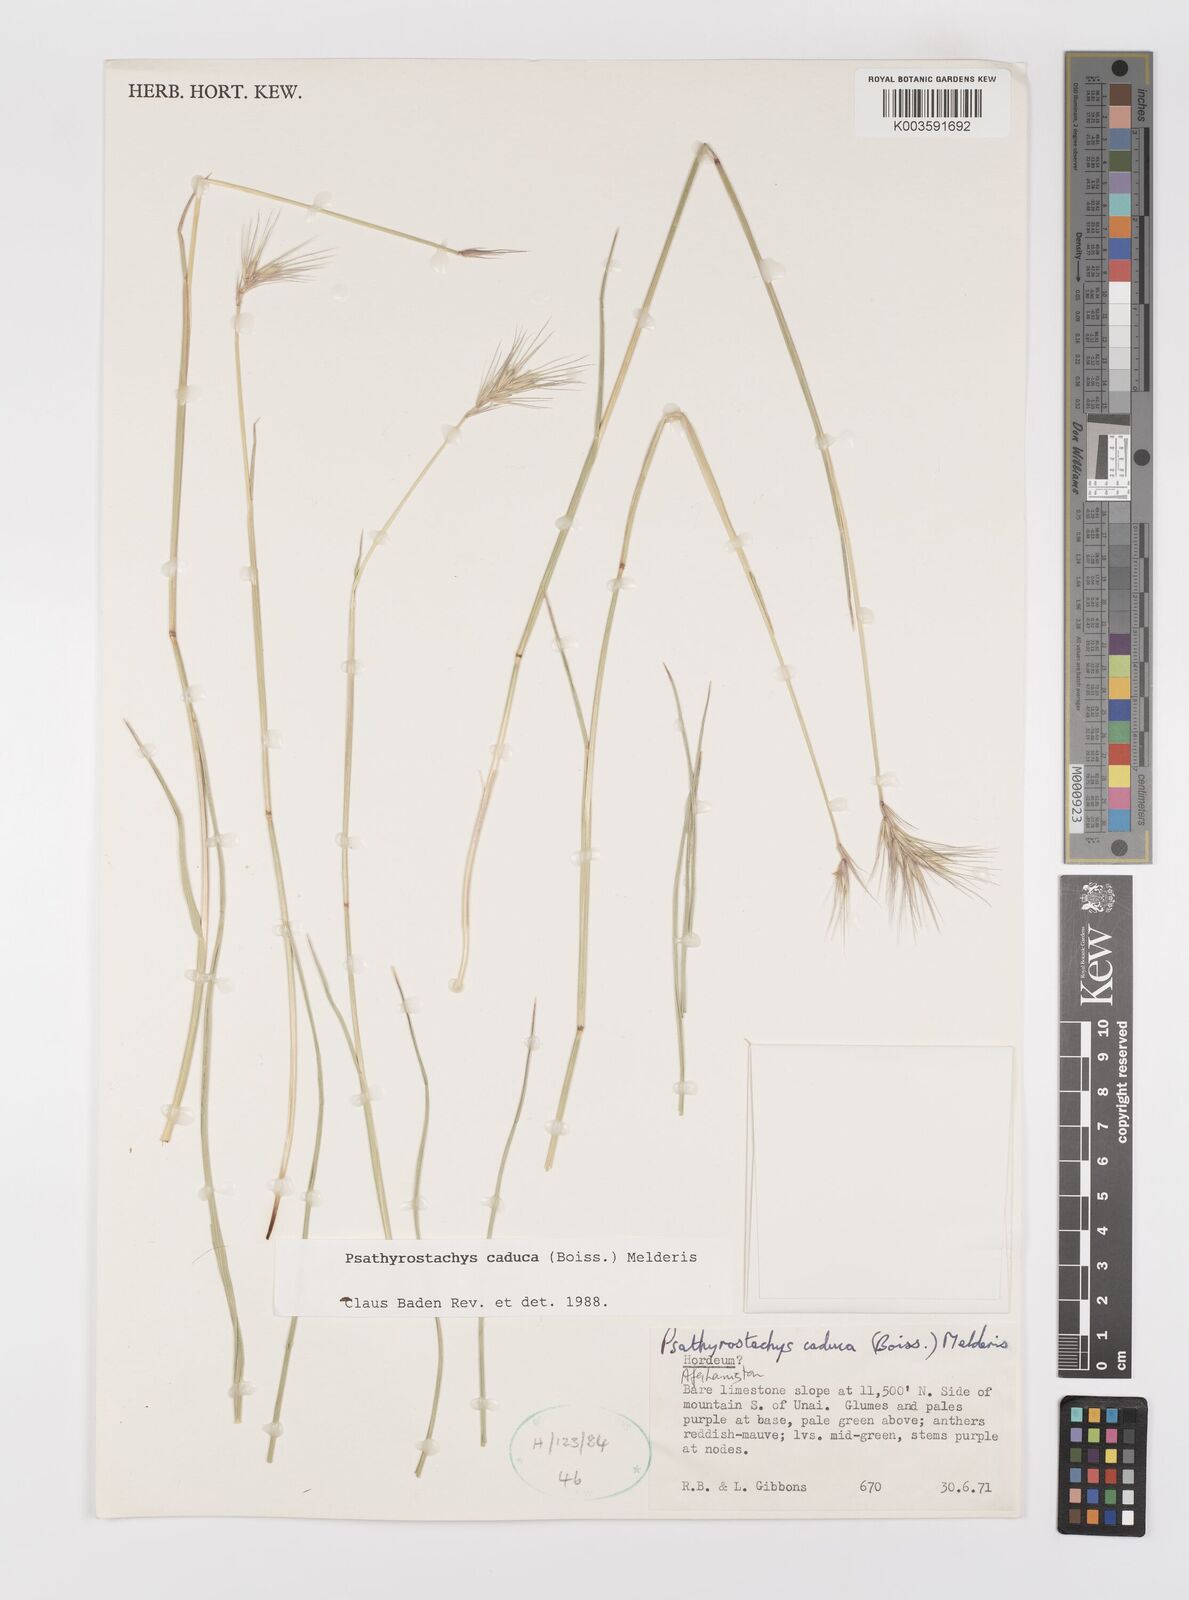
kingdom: Plantae
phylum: Tracheophyta
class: Liliopsida
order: Poales
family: Poaceae
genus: Psathyrostachys
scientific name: Psathyrostachys caduca
